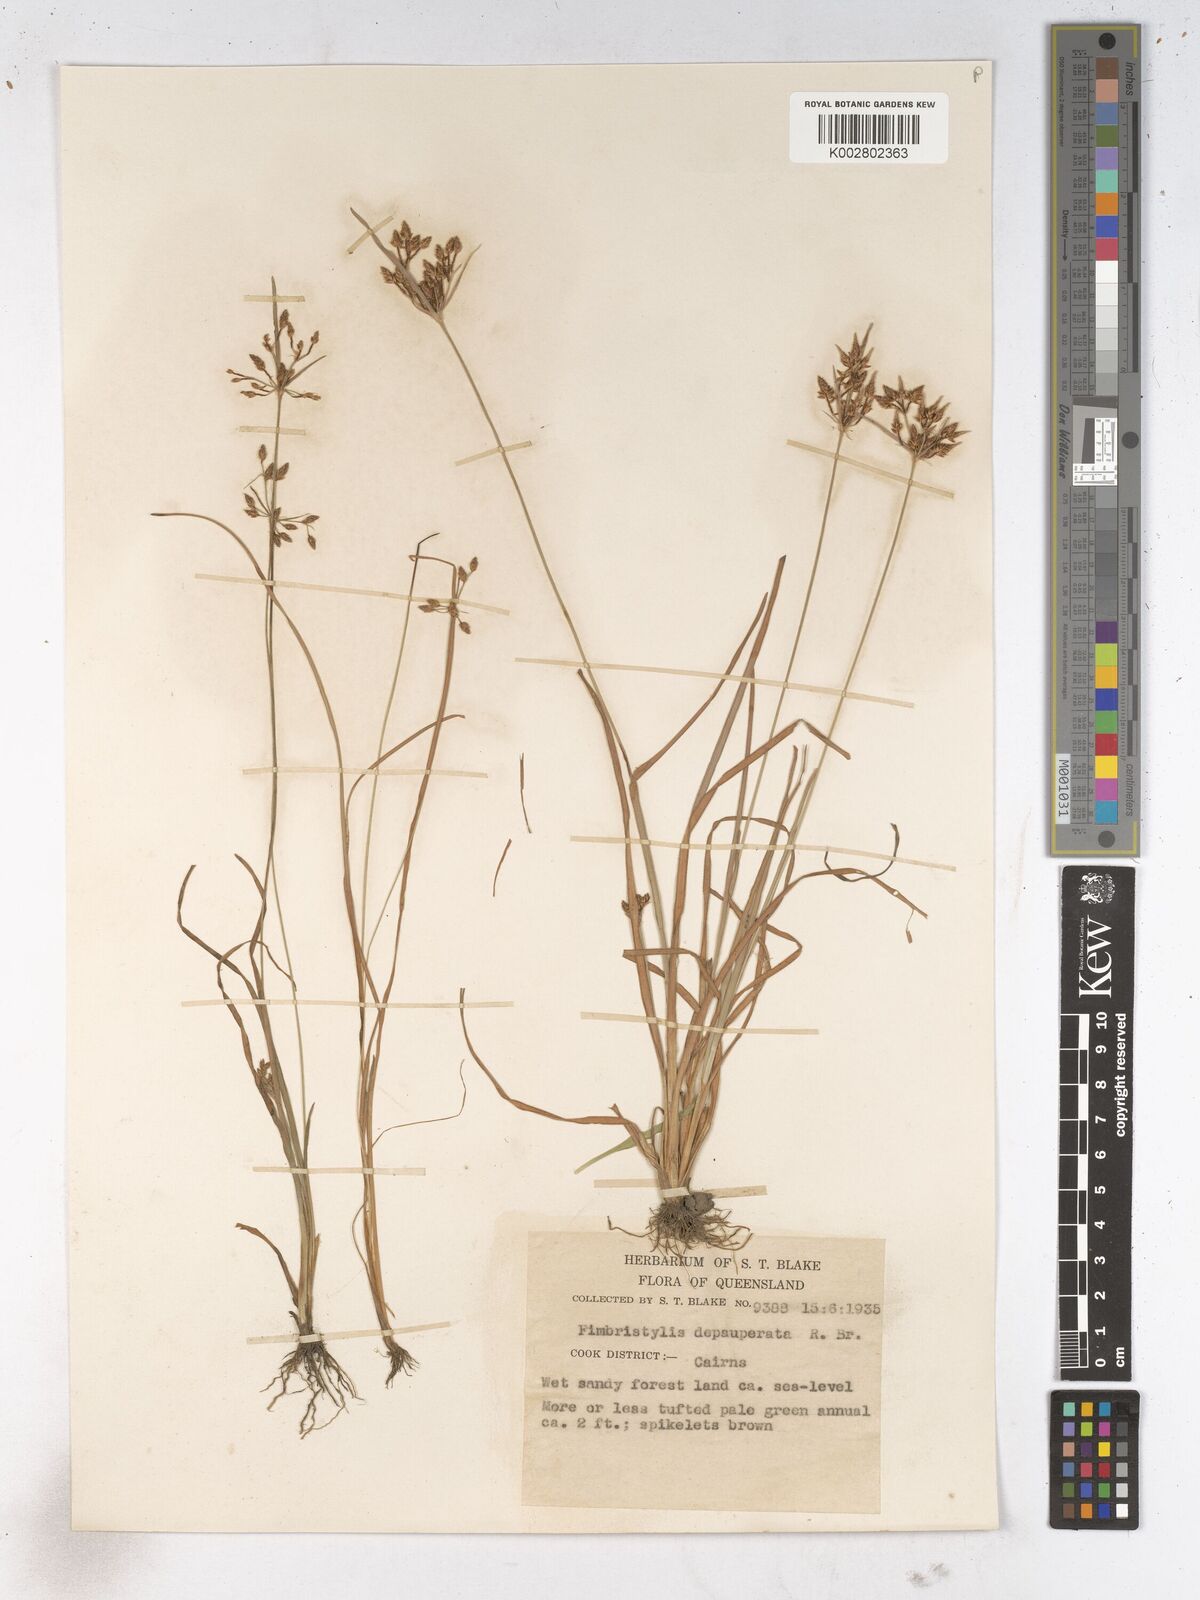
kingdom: Plantae
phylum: Tracheophyta
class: Liliopsida
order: Poales
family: Cyperaceae
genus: Fimbristylis
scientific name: Fimbristylis dichotoma
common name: Forked fimbry
